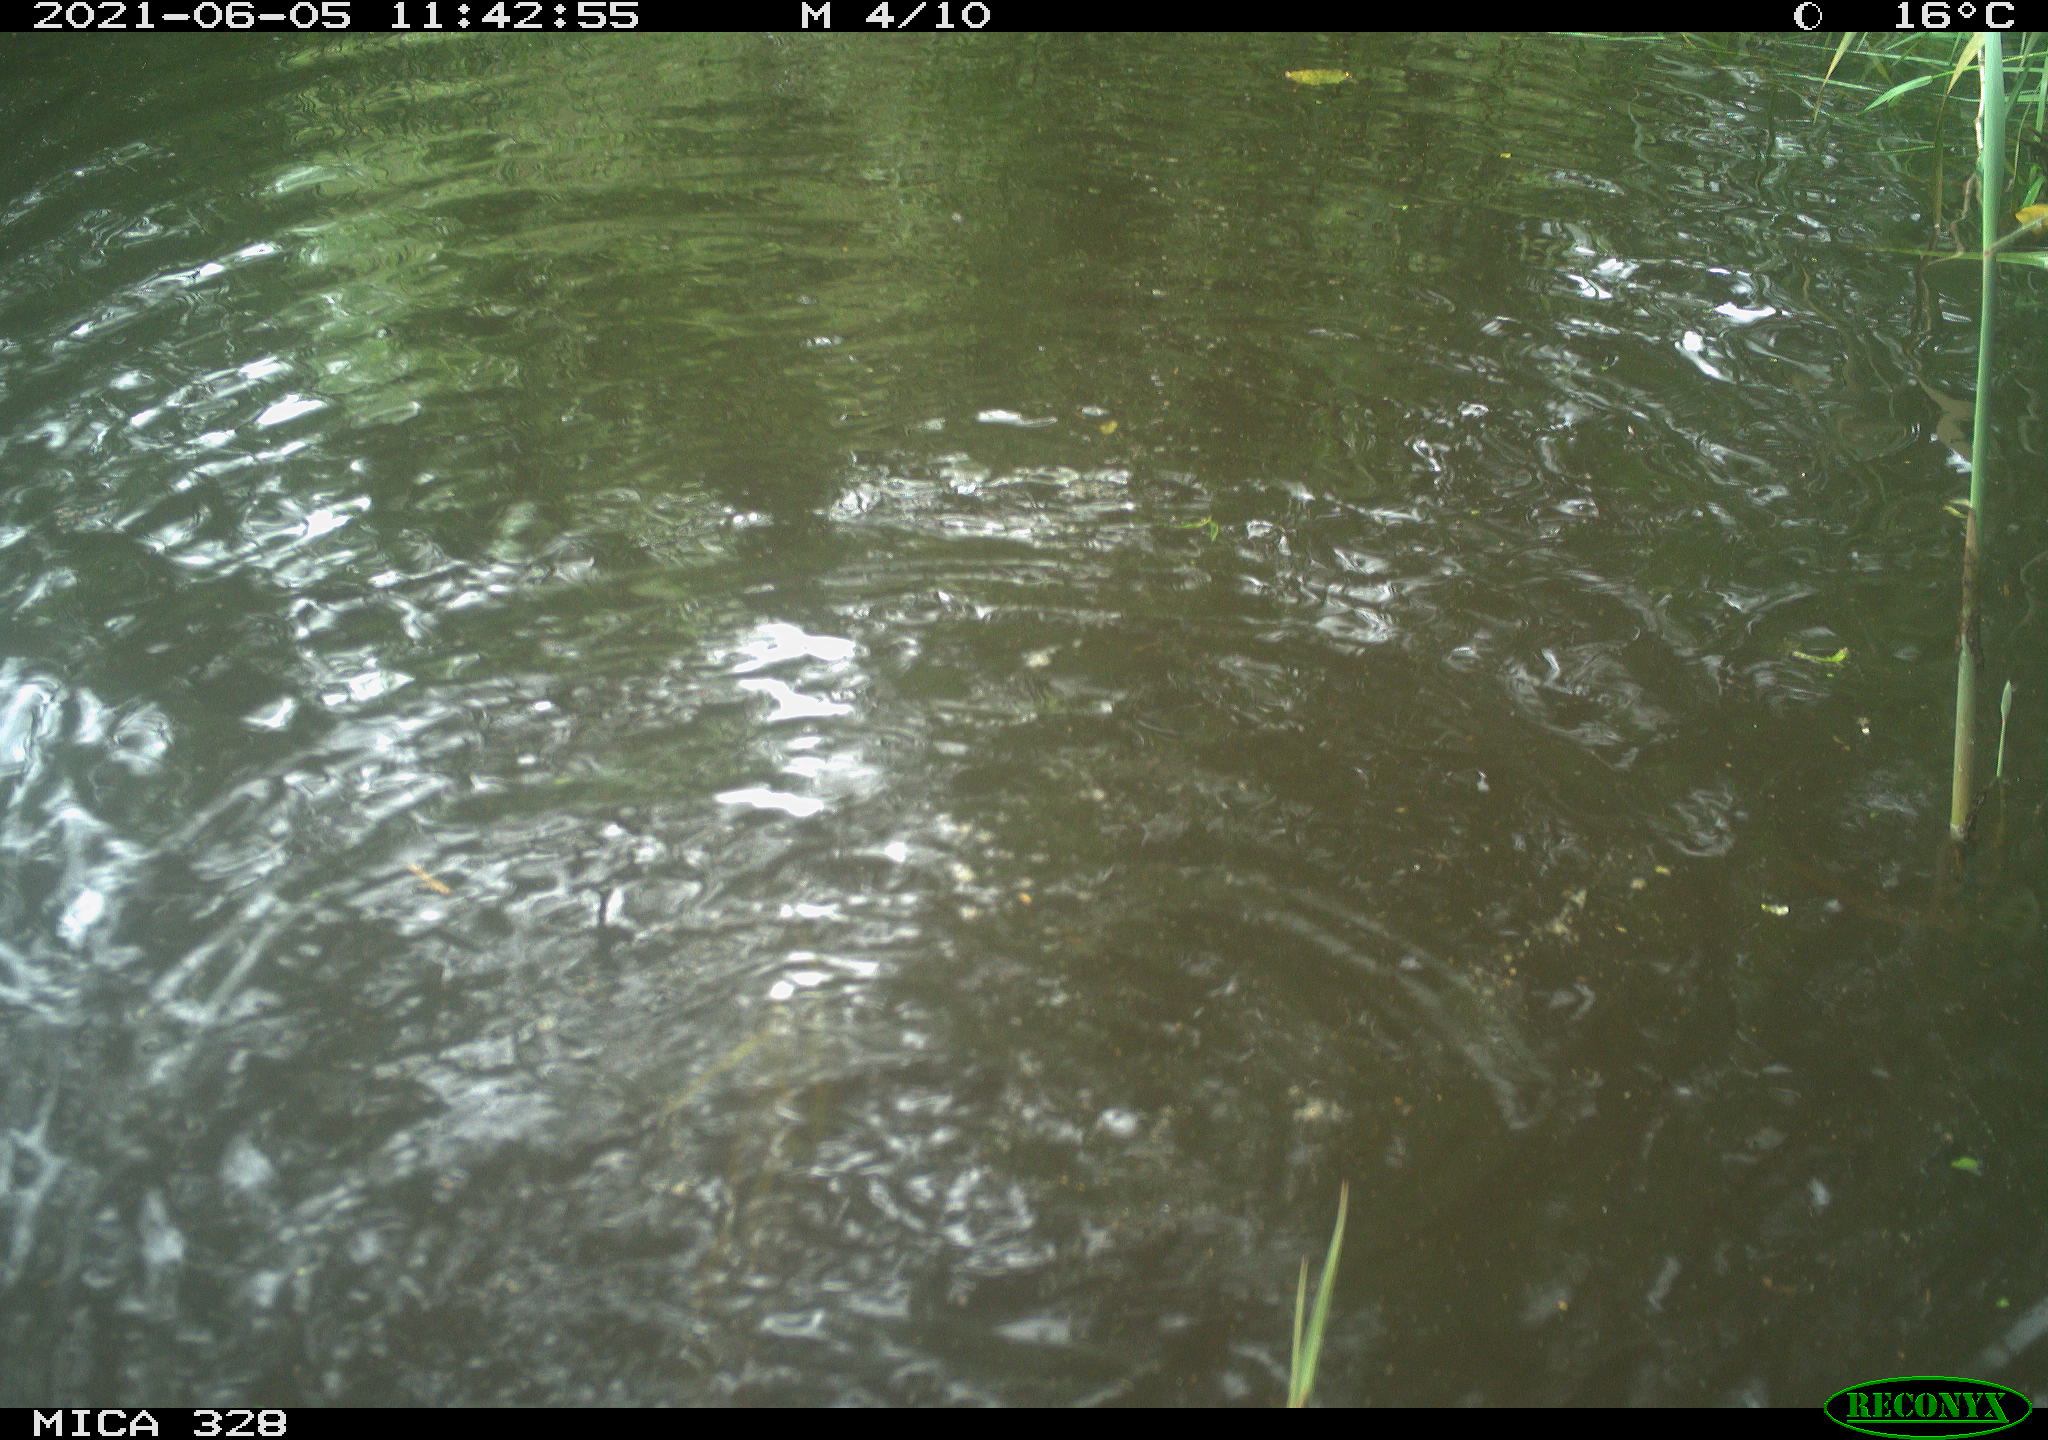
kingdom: Animalia
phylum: Chordata
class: Mammalia
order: Rodentia
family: Cricetidae
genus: Ondatra
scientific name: Ondatra zibethicus
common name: Muskrat
